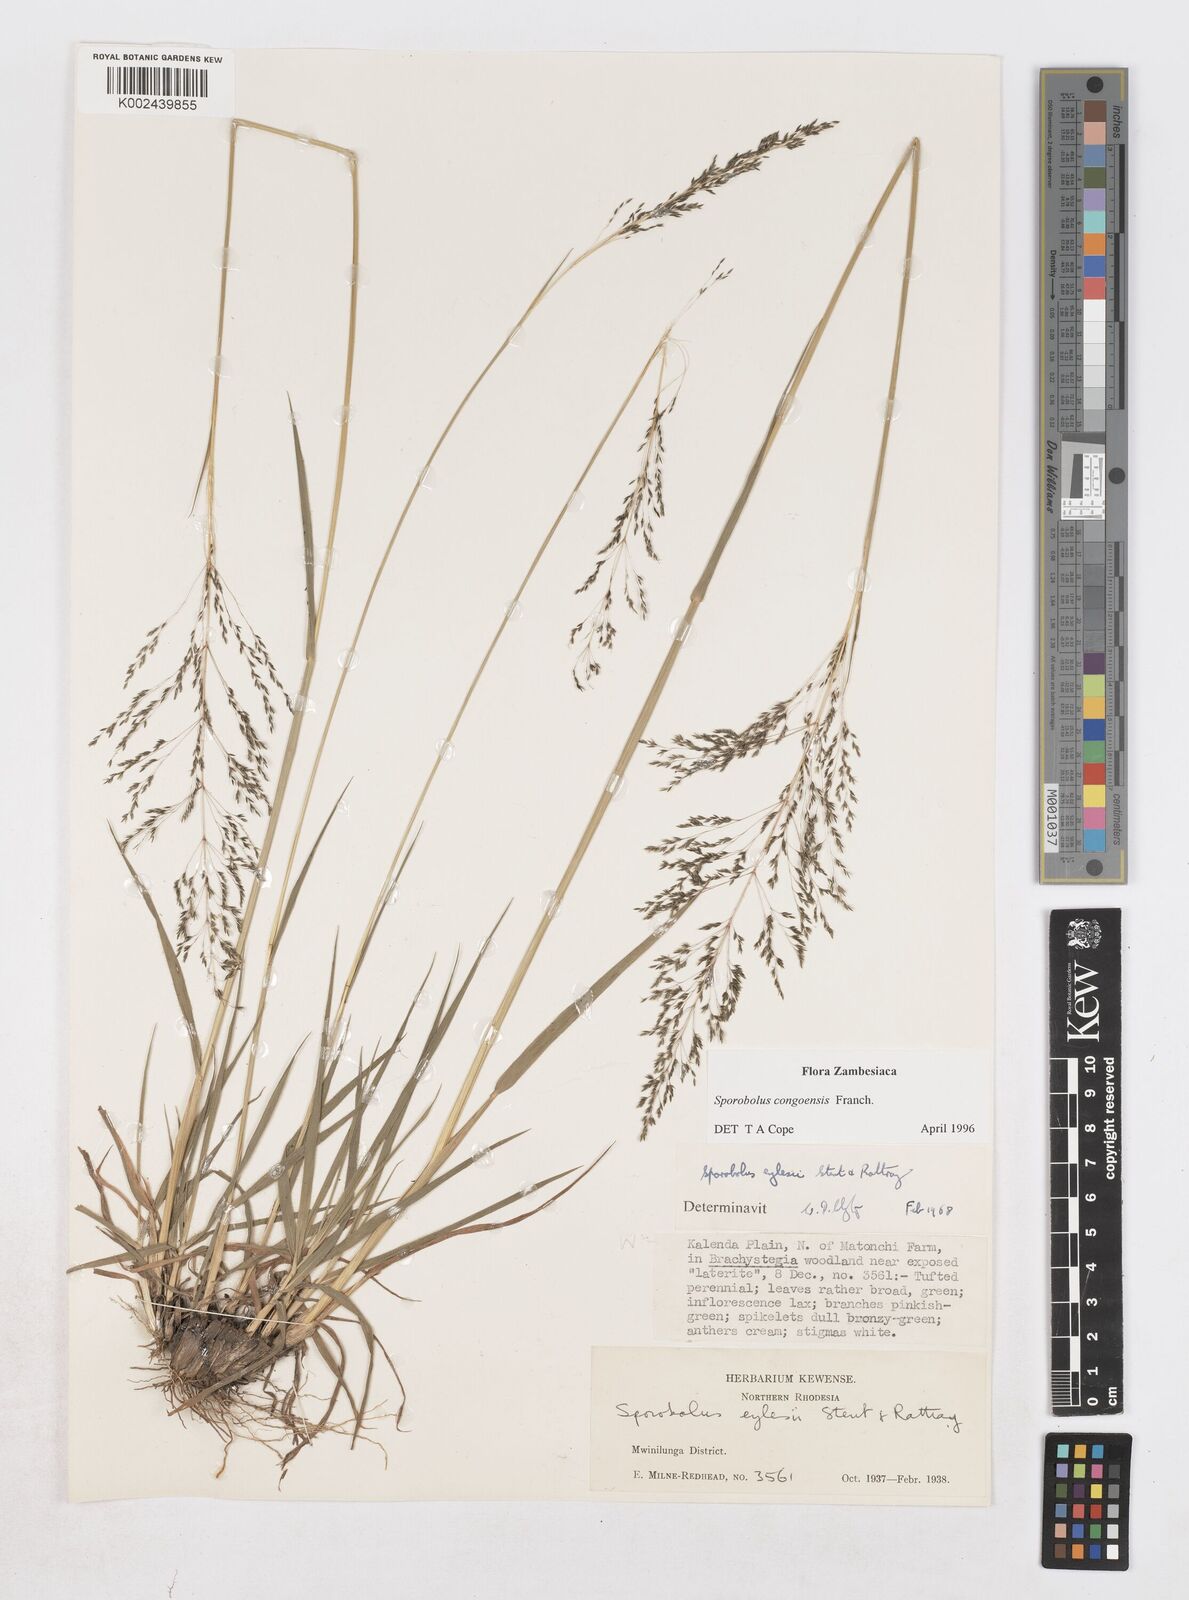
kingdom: Plantae
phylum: Tracheophyta
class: Liliopsida
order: Poales
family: Poaceae
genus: Sporobolus
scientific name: Sporobolus congoensis
